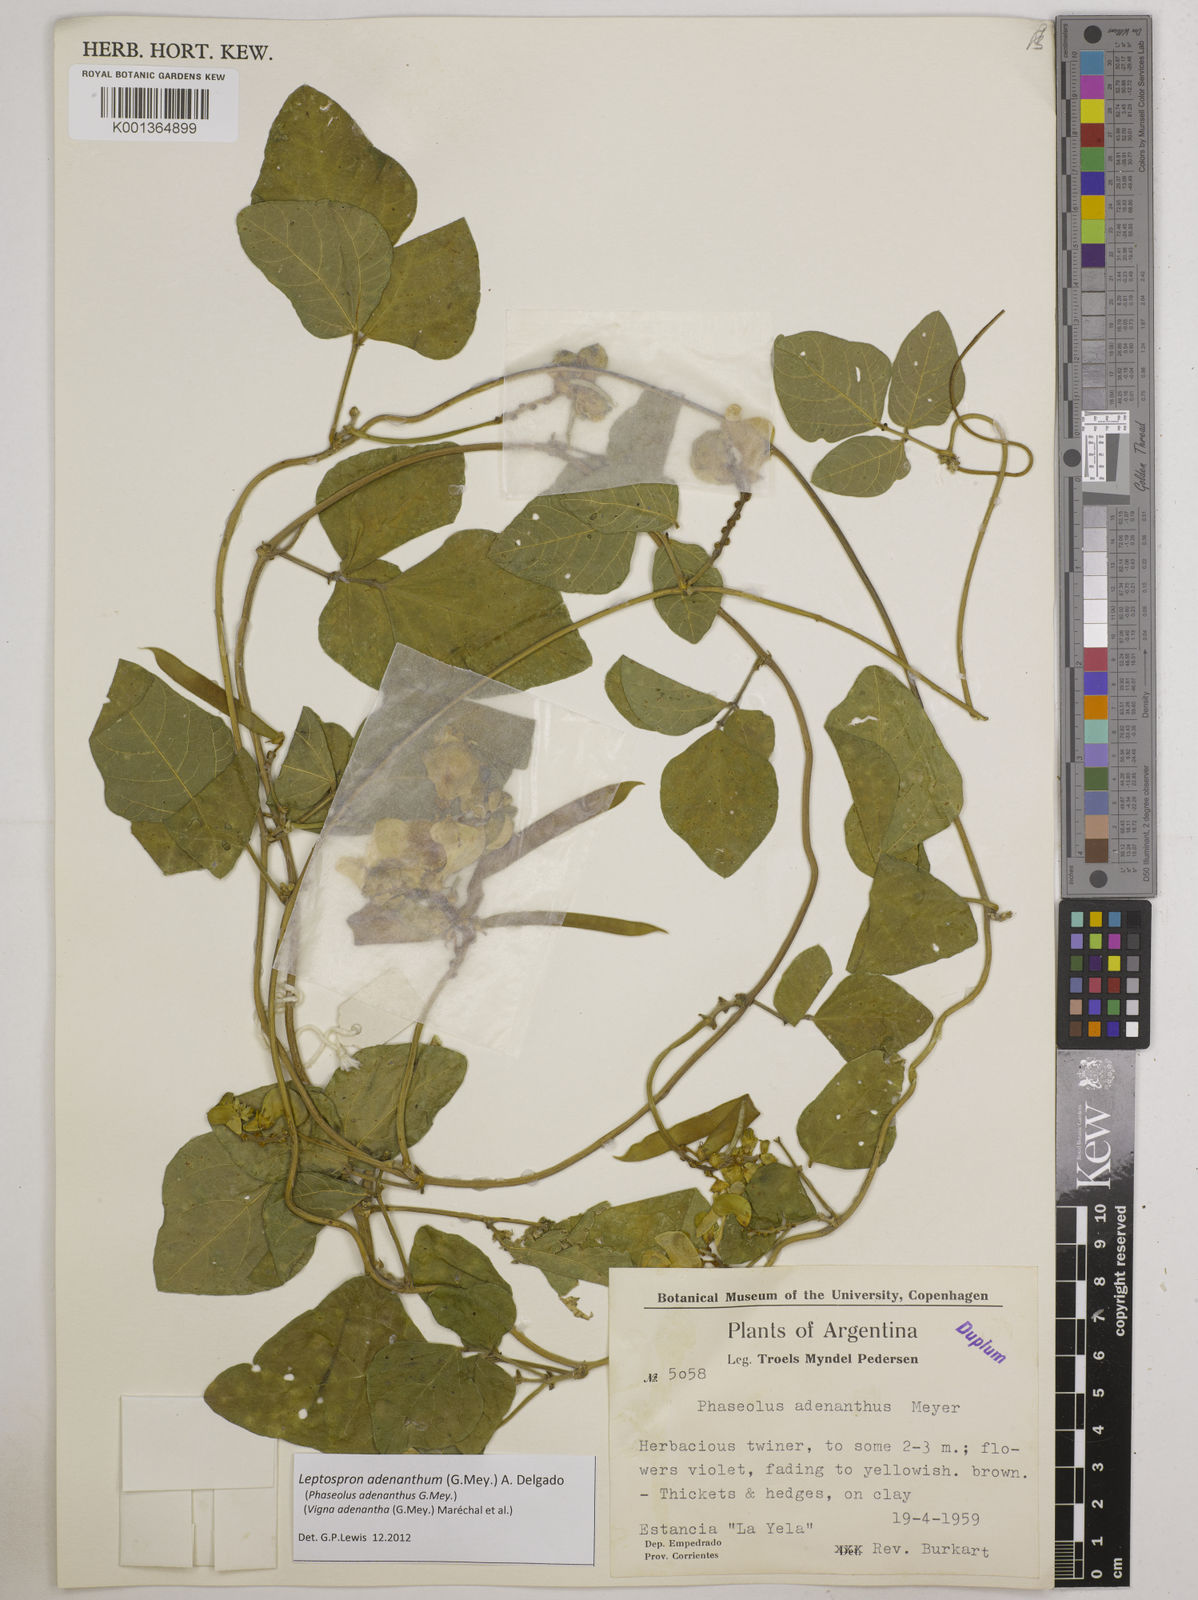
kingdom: Plantae
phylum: Tracheophyta
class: Magnoliopsida
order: Fabales
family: Fabaceae
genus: Leptospron
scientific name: Leptospron adenanthum
